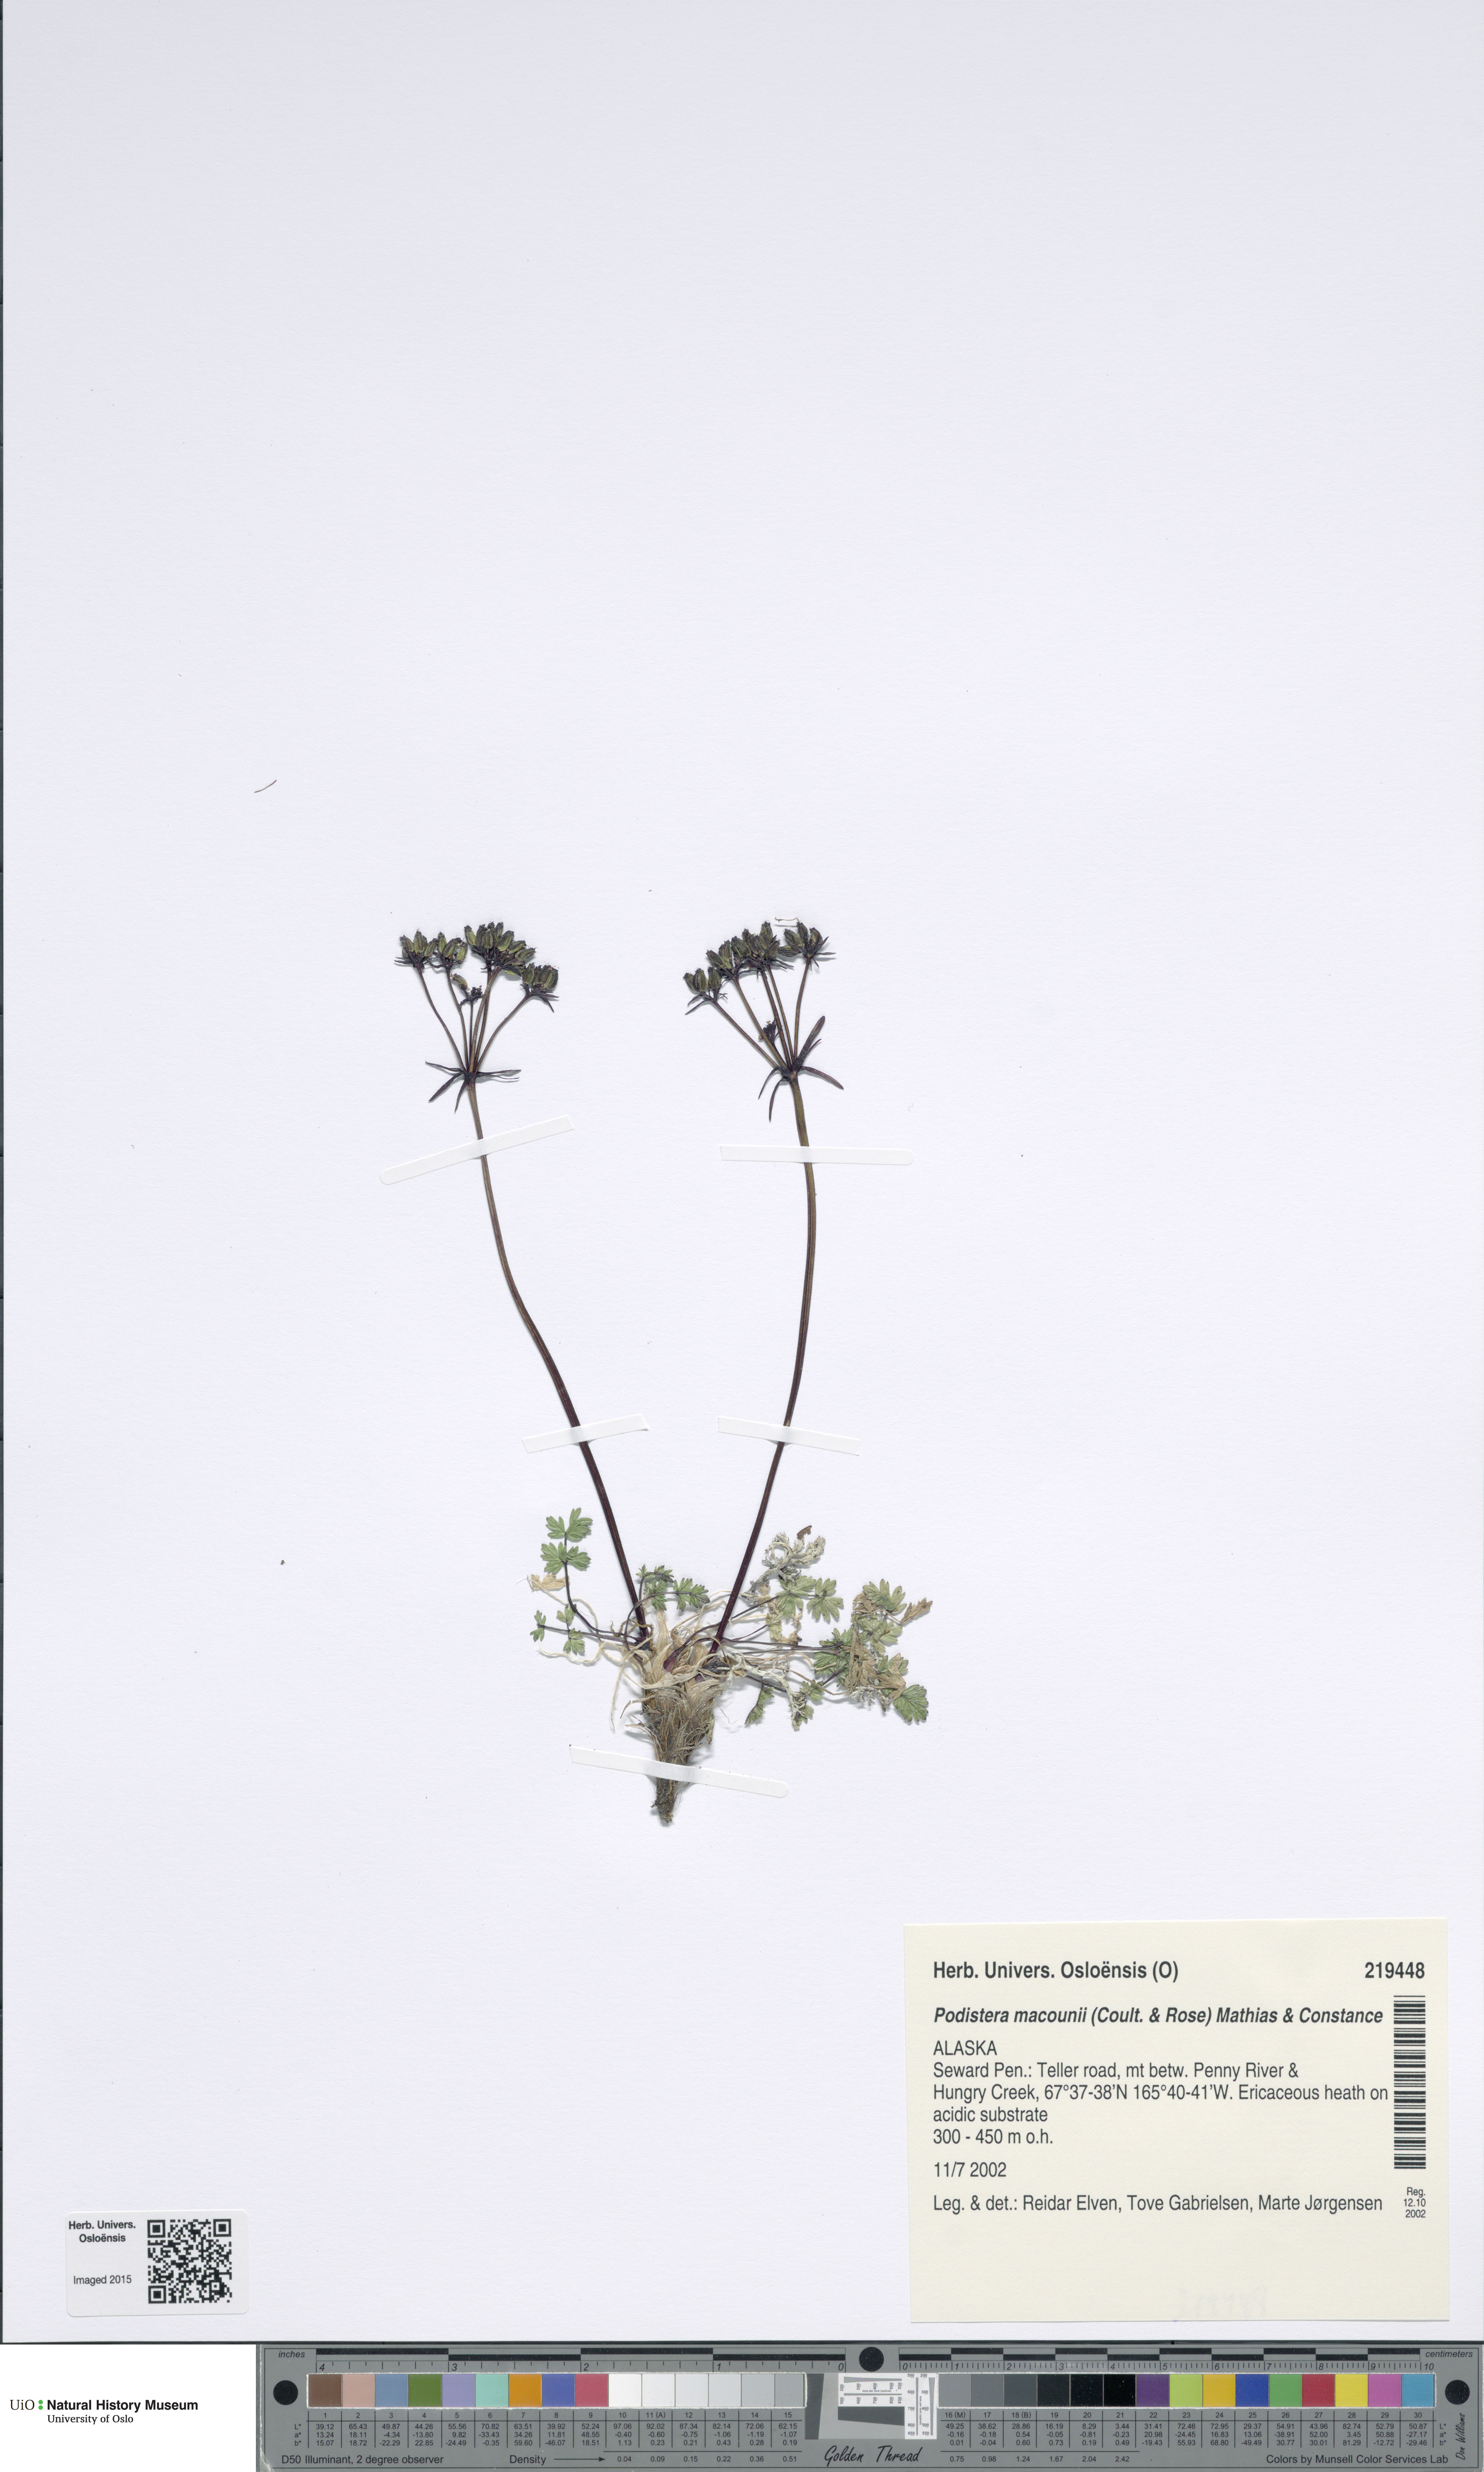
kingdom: Plantae
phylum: Tracheophyta
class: Magnoliopsida
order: Apiales
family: Apiaceae
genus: Orumbella
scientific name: Orumbella macounii
